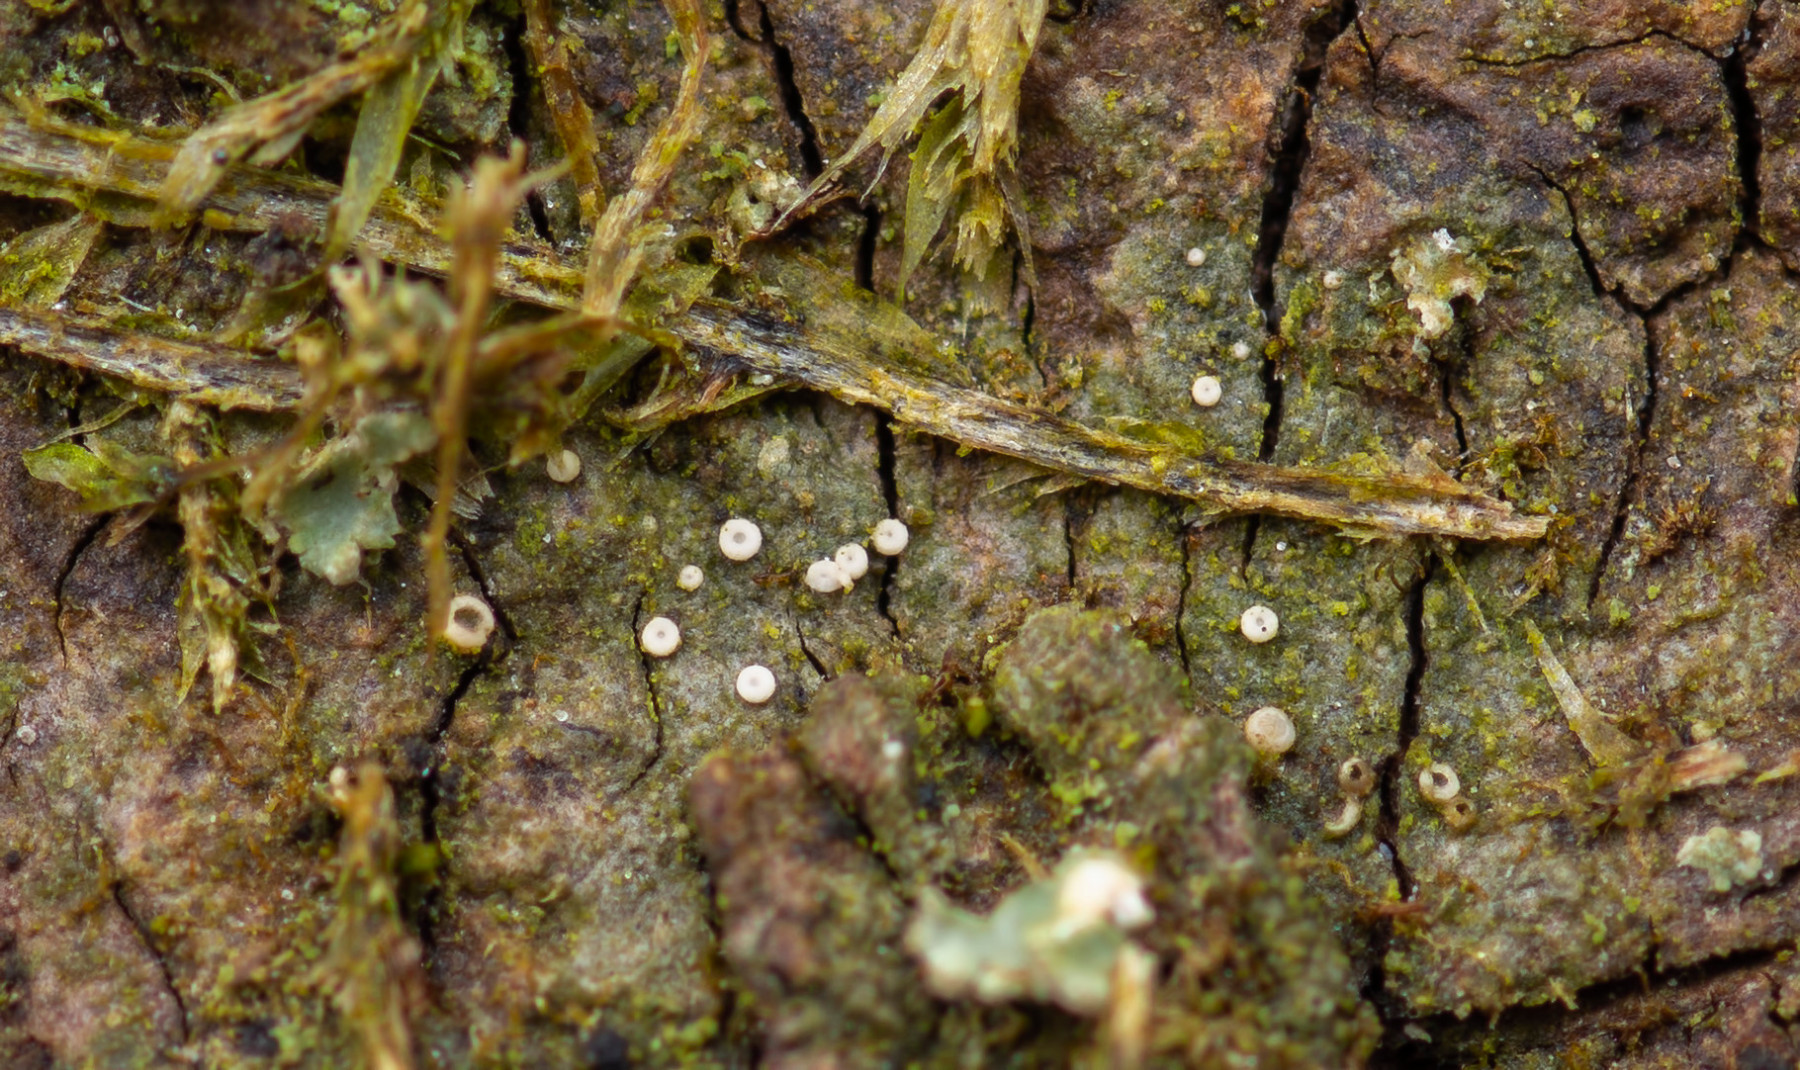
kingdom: Fungi
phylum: Ascomycota
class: Lecanoromycetes
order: Ostropales
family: Coenogoniaceae
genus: Coenogonium
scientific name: Coenogonium pineti
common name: liden vokslav
